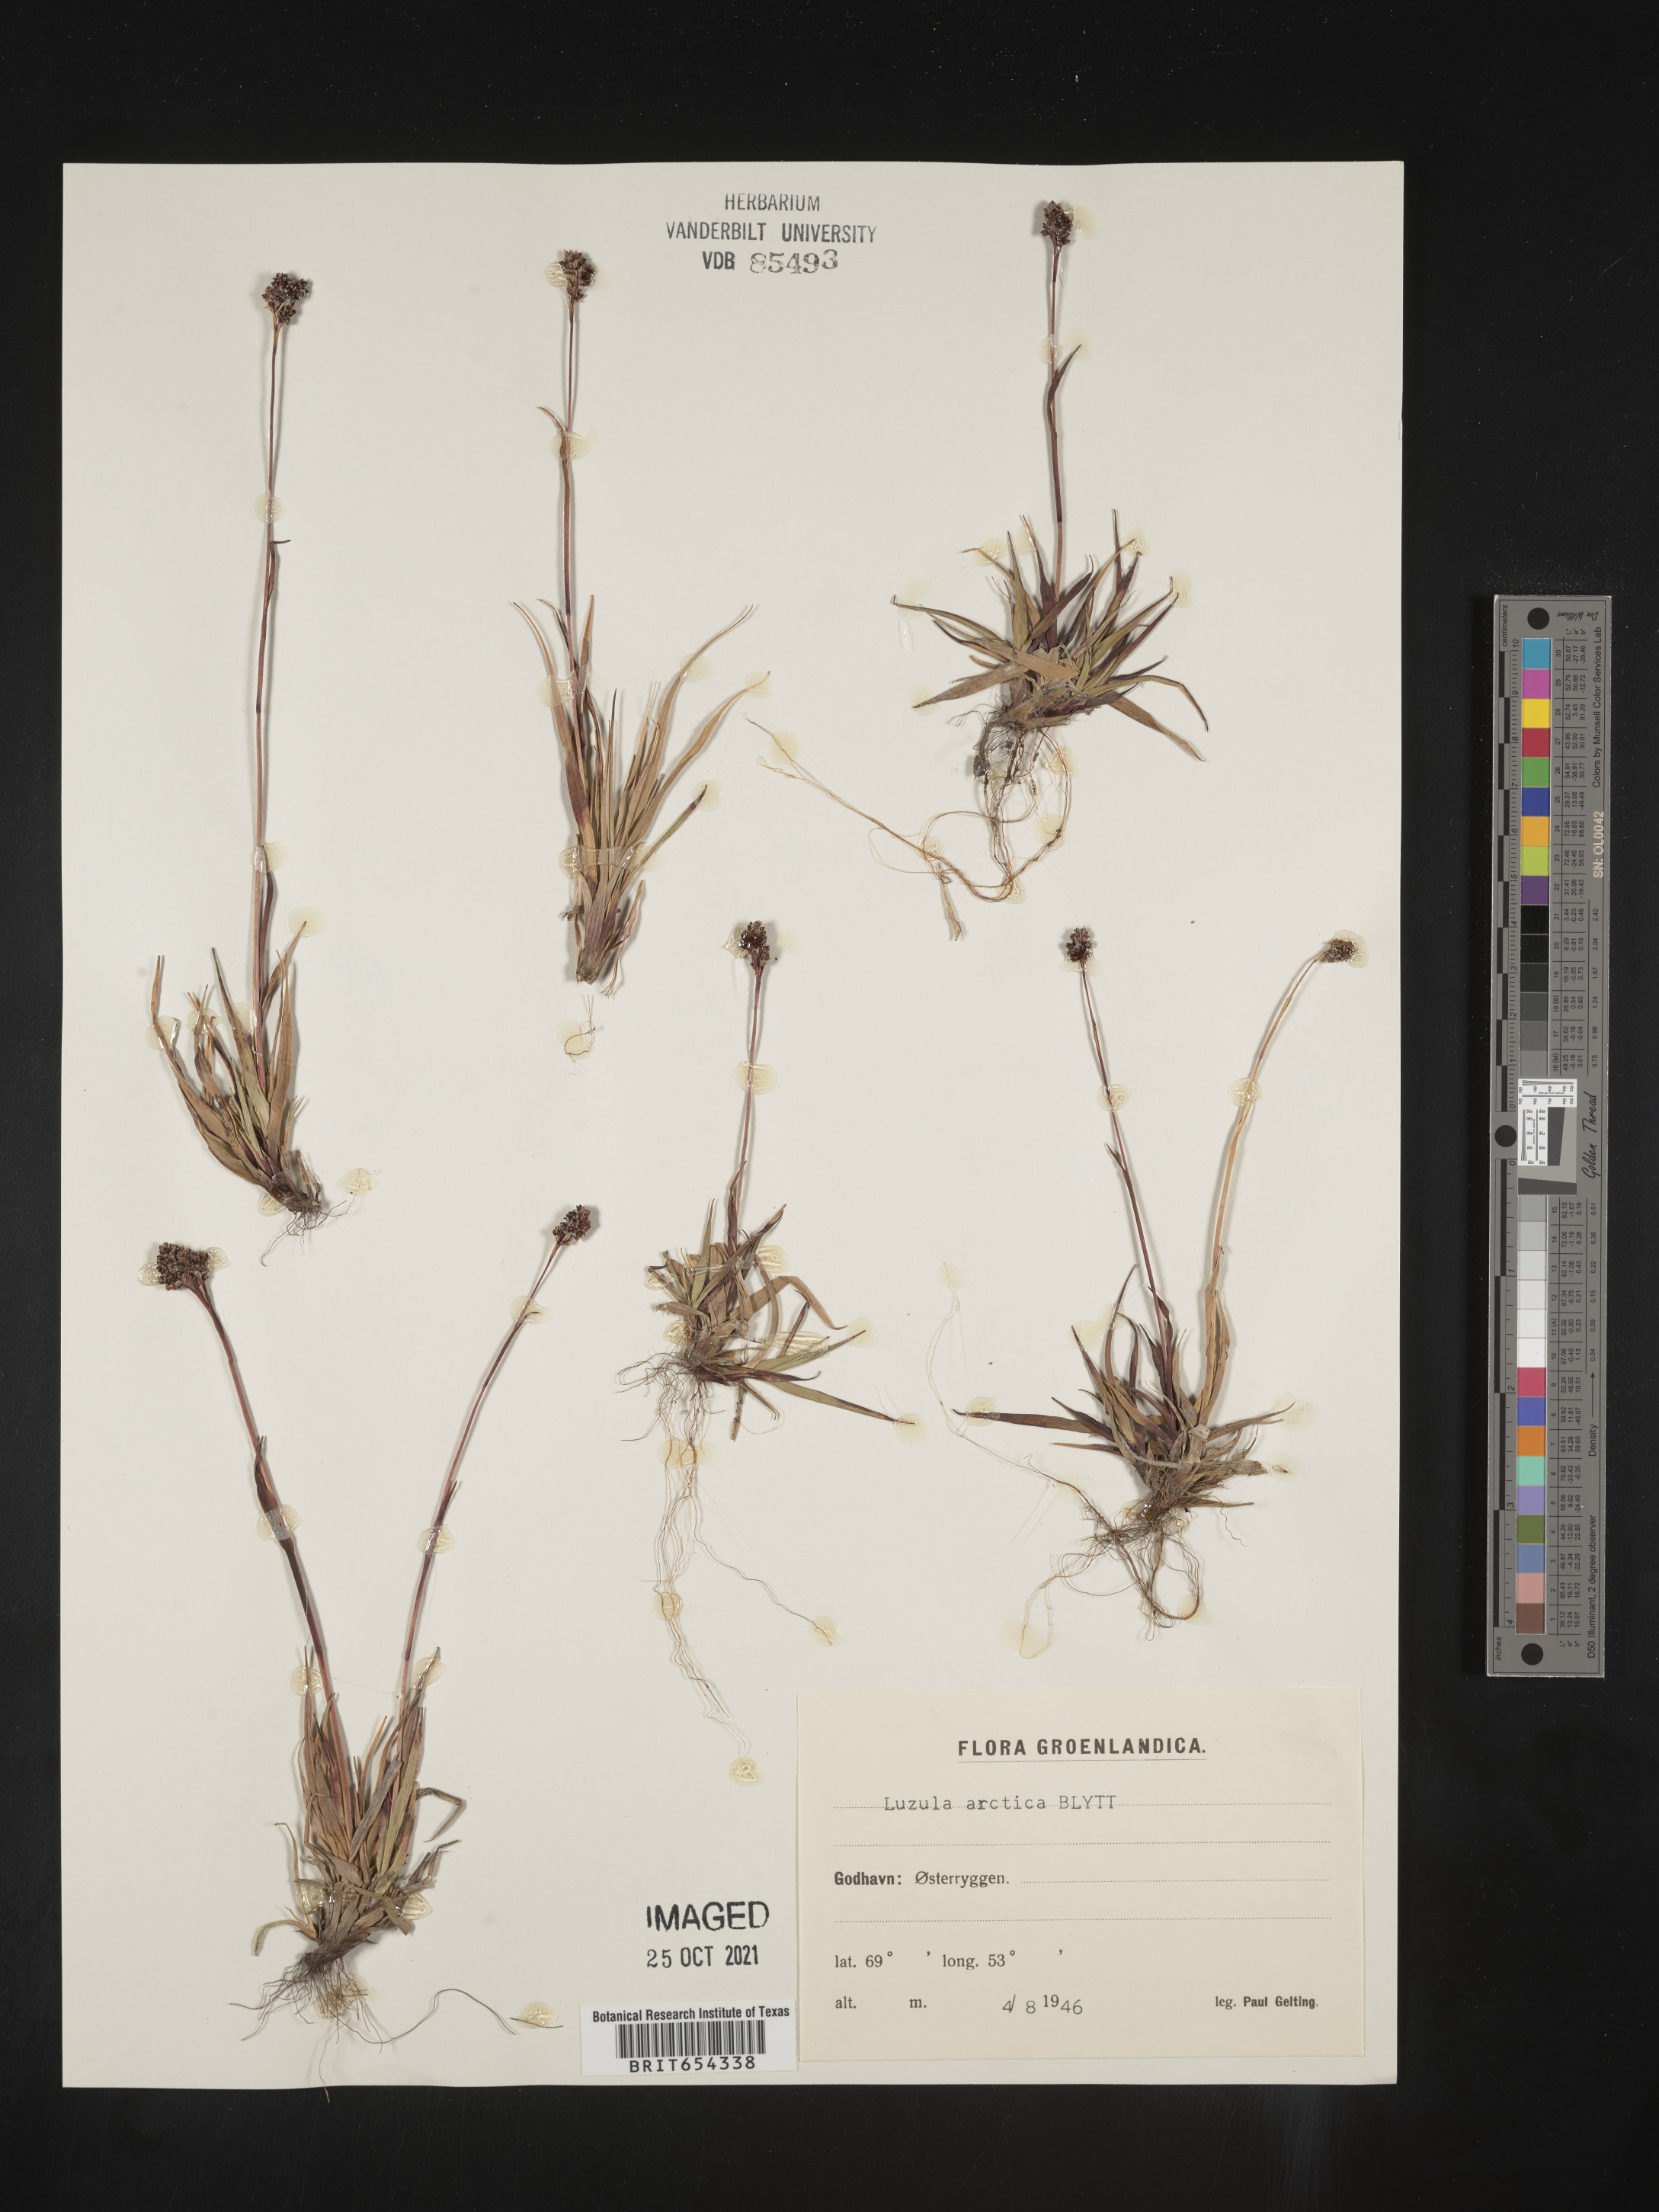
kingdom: Plantae
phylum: Tracheophyta
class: Liliopsida
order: Poales
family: Juncaceae
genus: Luzula
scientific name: Luzula
